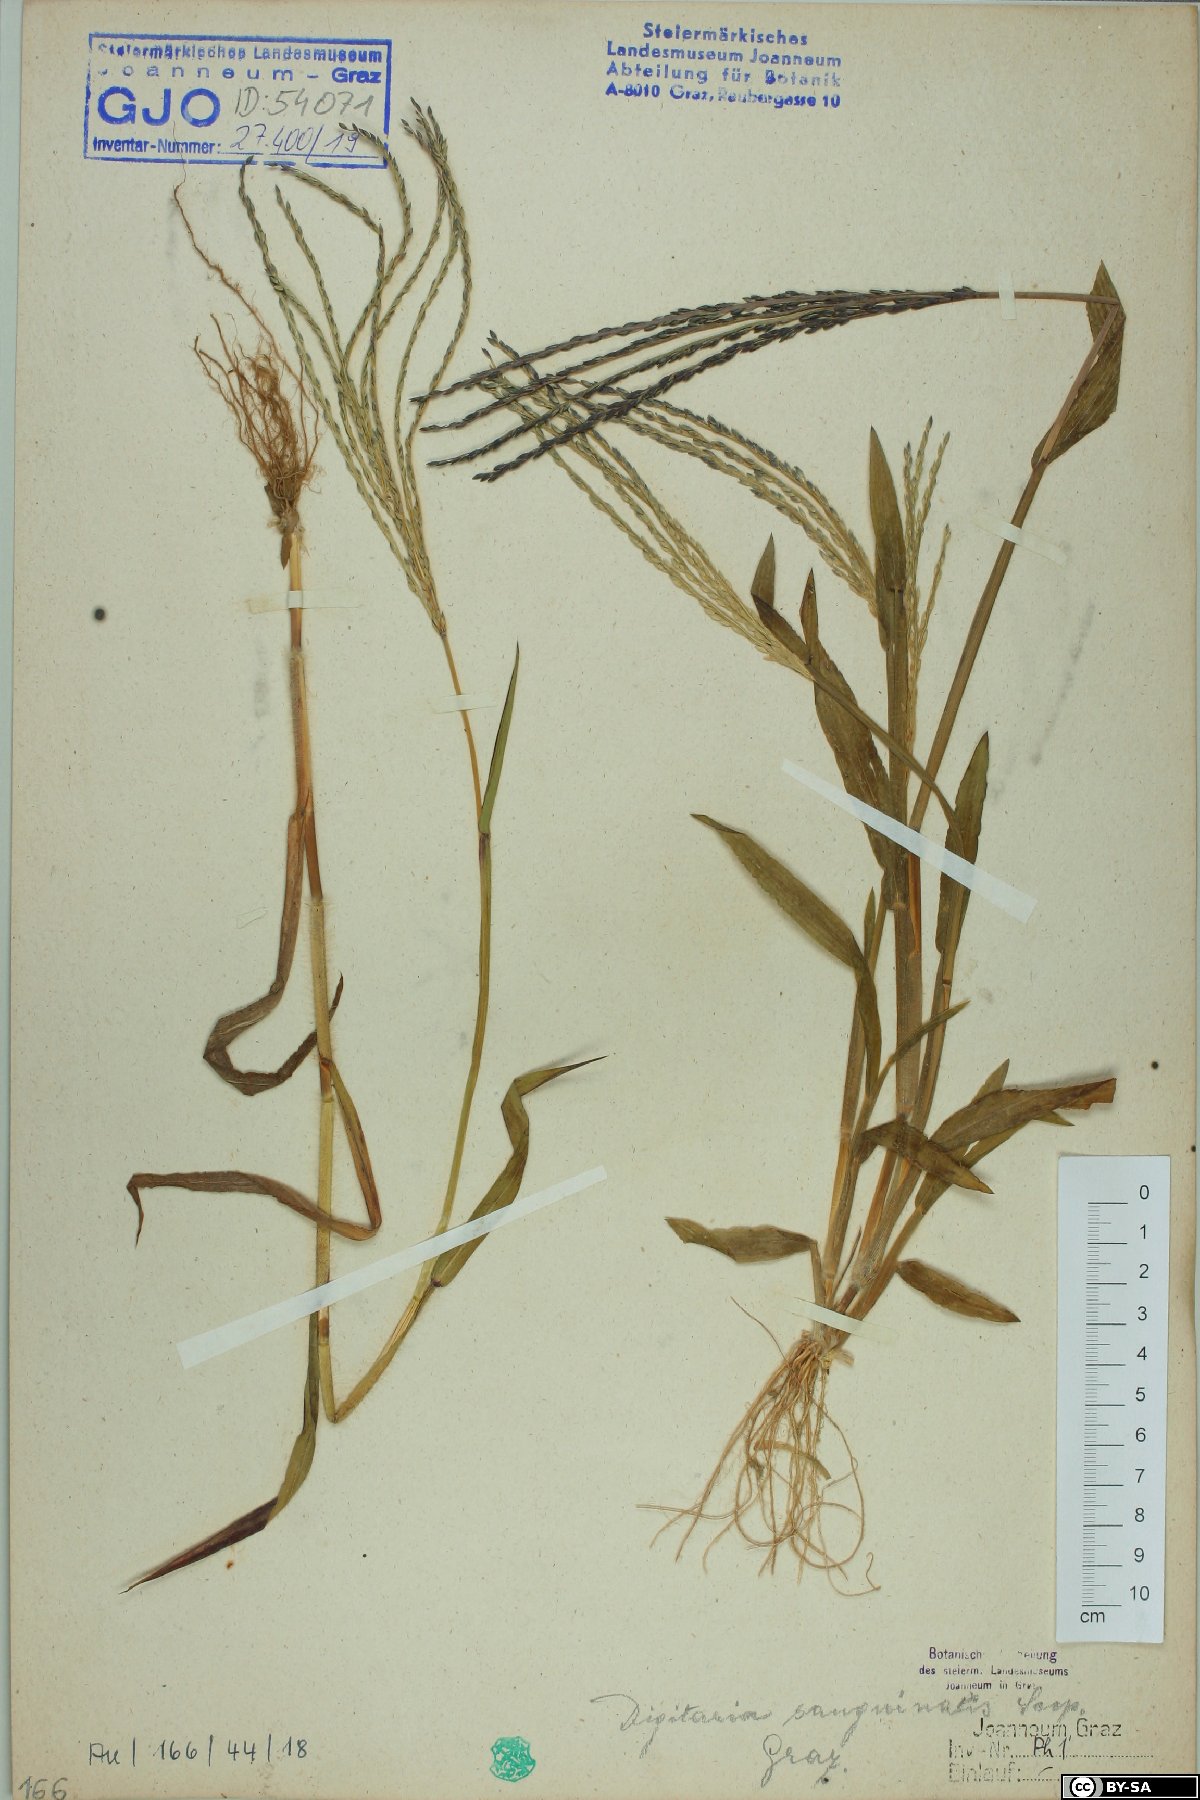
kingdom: Plantae
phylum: Tracheophyta
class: Liliopsida
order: Poales
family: Poaceae
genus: Digitaria
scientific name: Digitaria sanguinalis
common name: Hairy crabgrass
